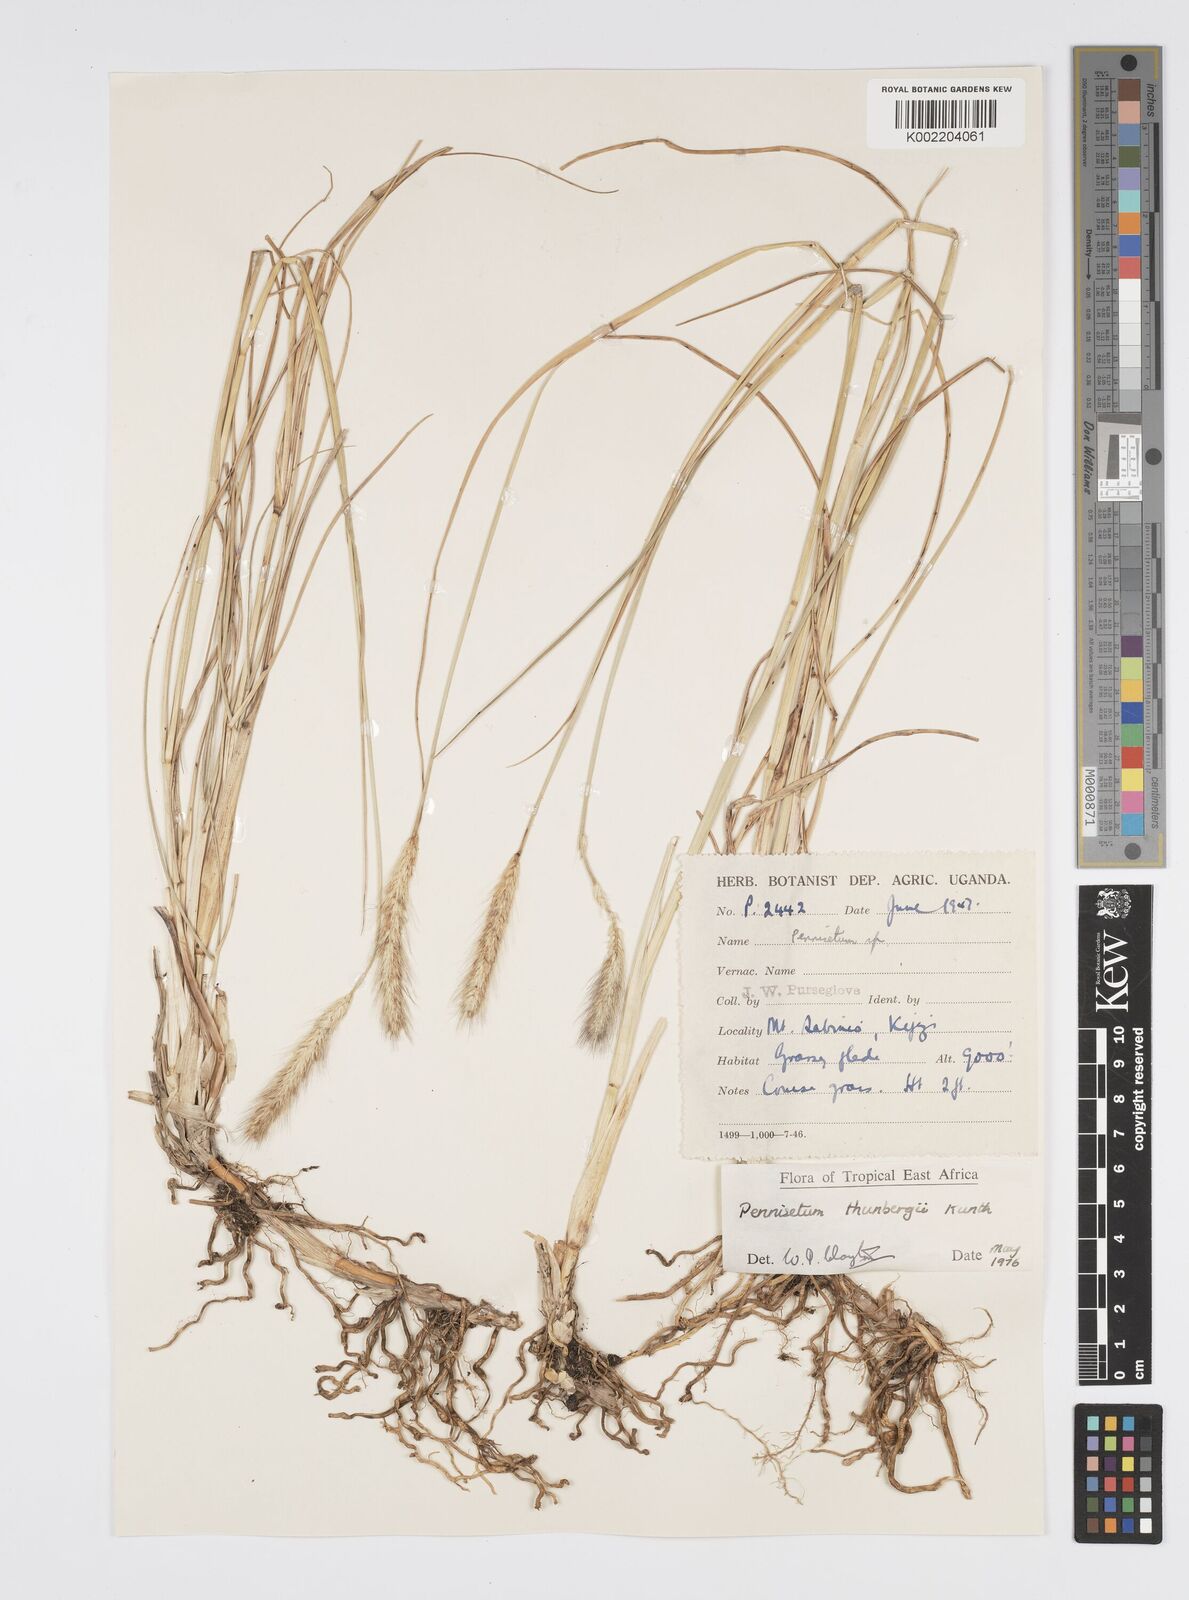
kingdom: Plantae
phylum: Tracheophyta
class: Liliopsida
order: Poales
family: Poaceae
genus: Cenchrus
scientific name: Cenchrus geniculatus
